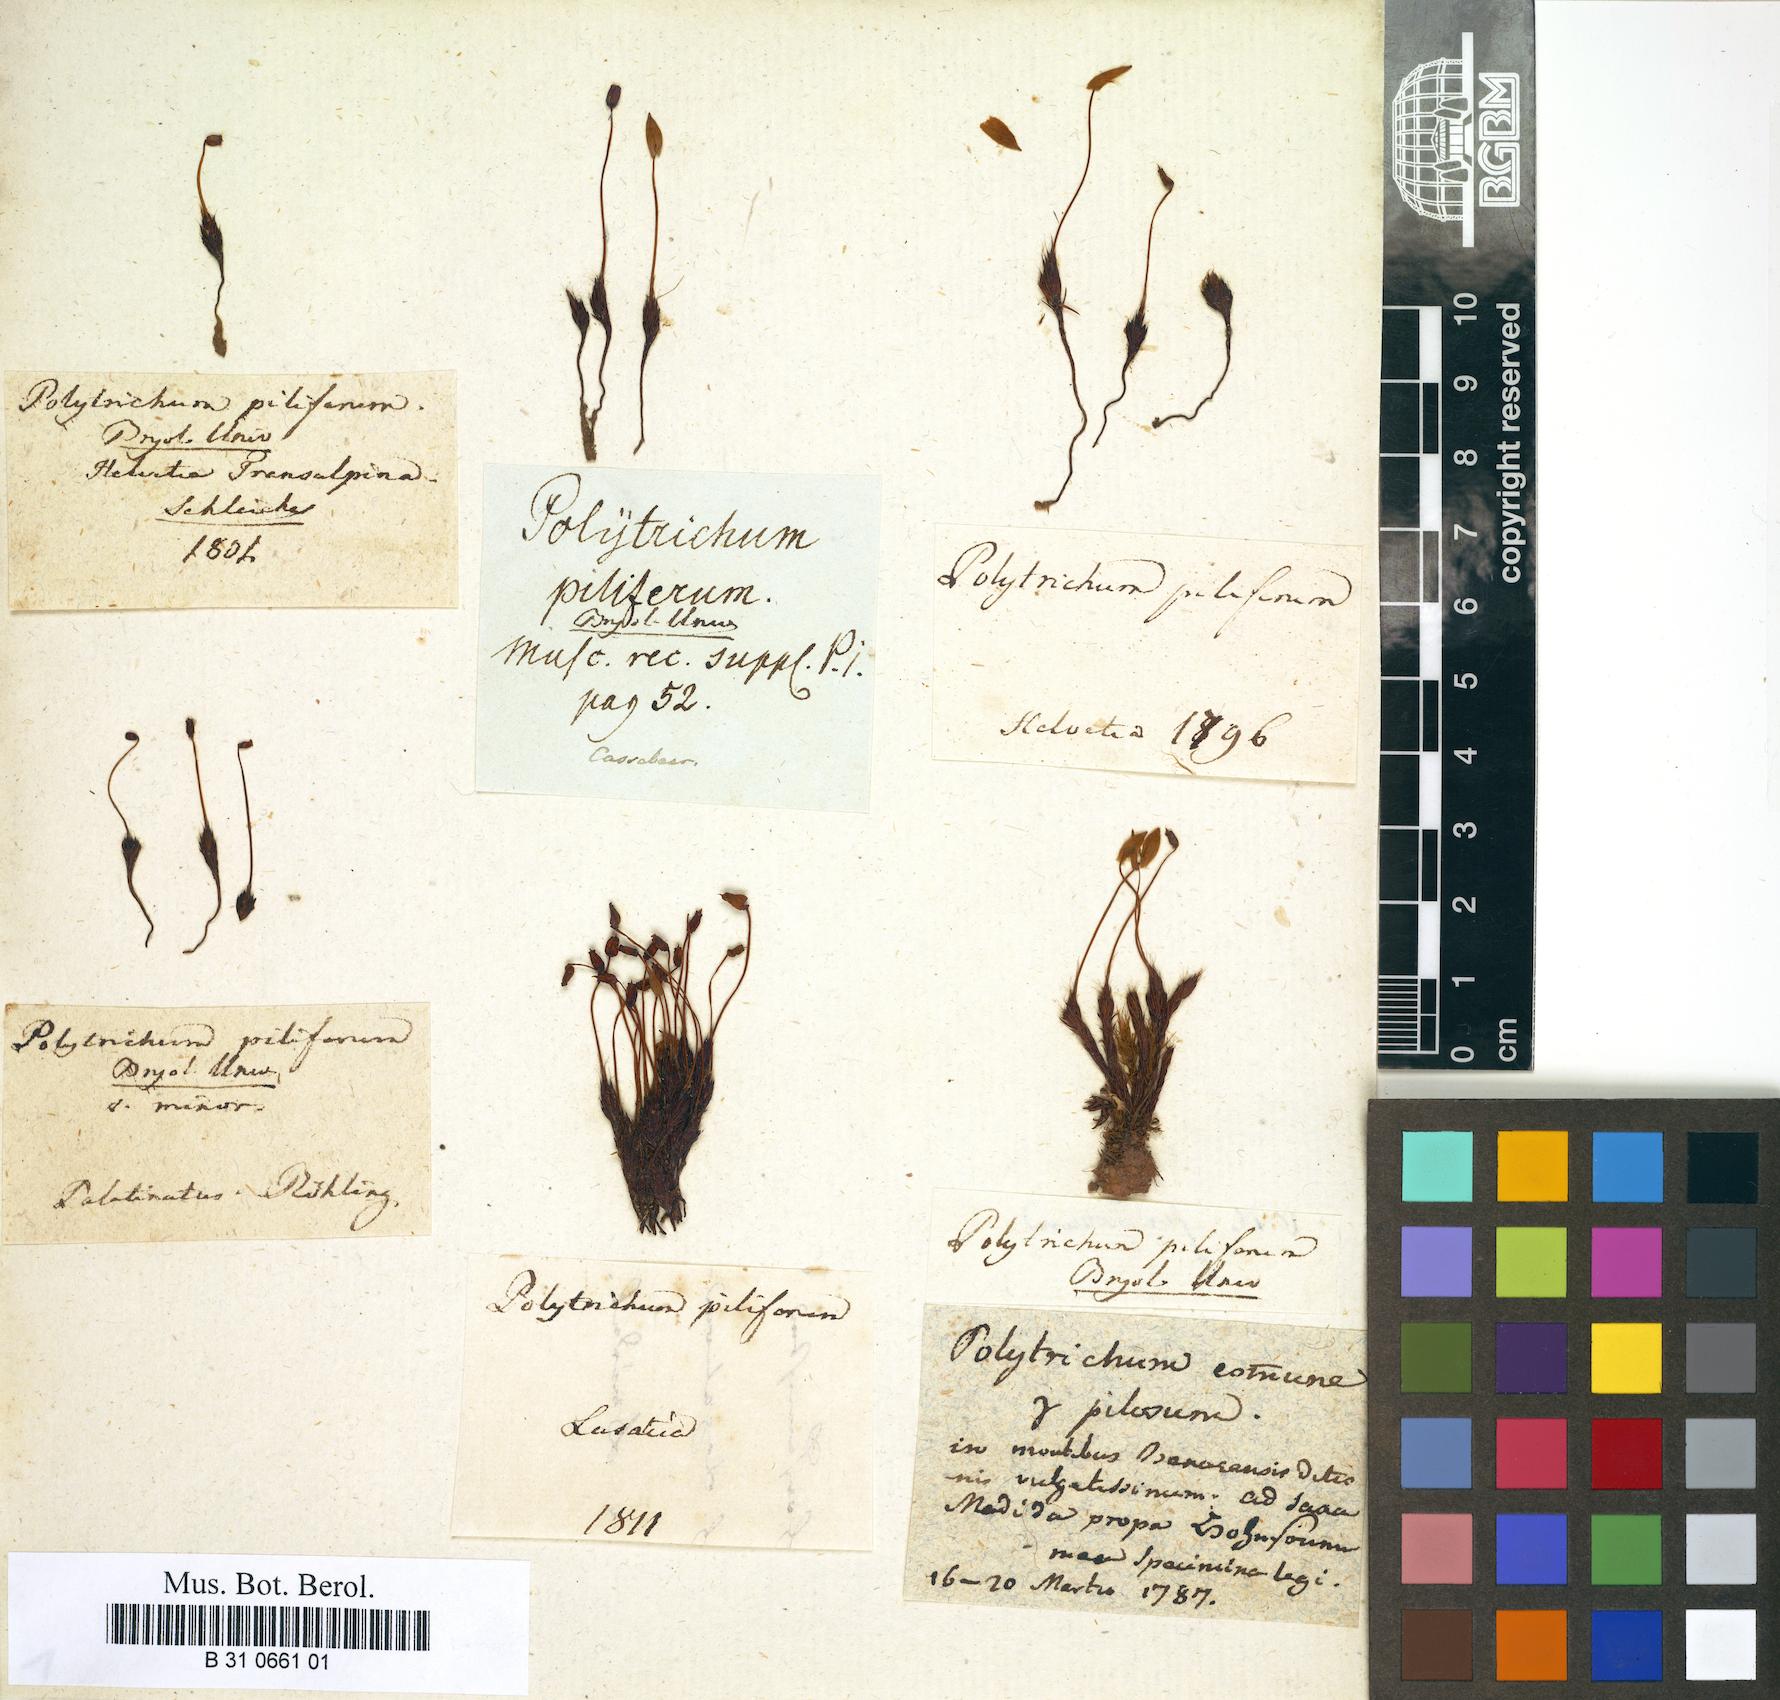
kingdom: Plantae
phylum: Bryophyta
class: Polytrichopsida
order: Polytrichales
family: Polytrichaceae
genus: Polytrichum
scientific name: Polytrichum piliferum
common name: Bristly haircap
